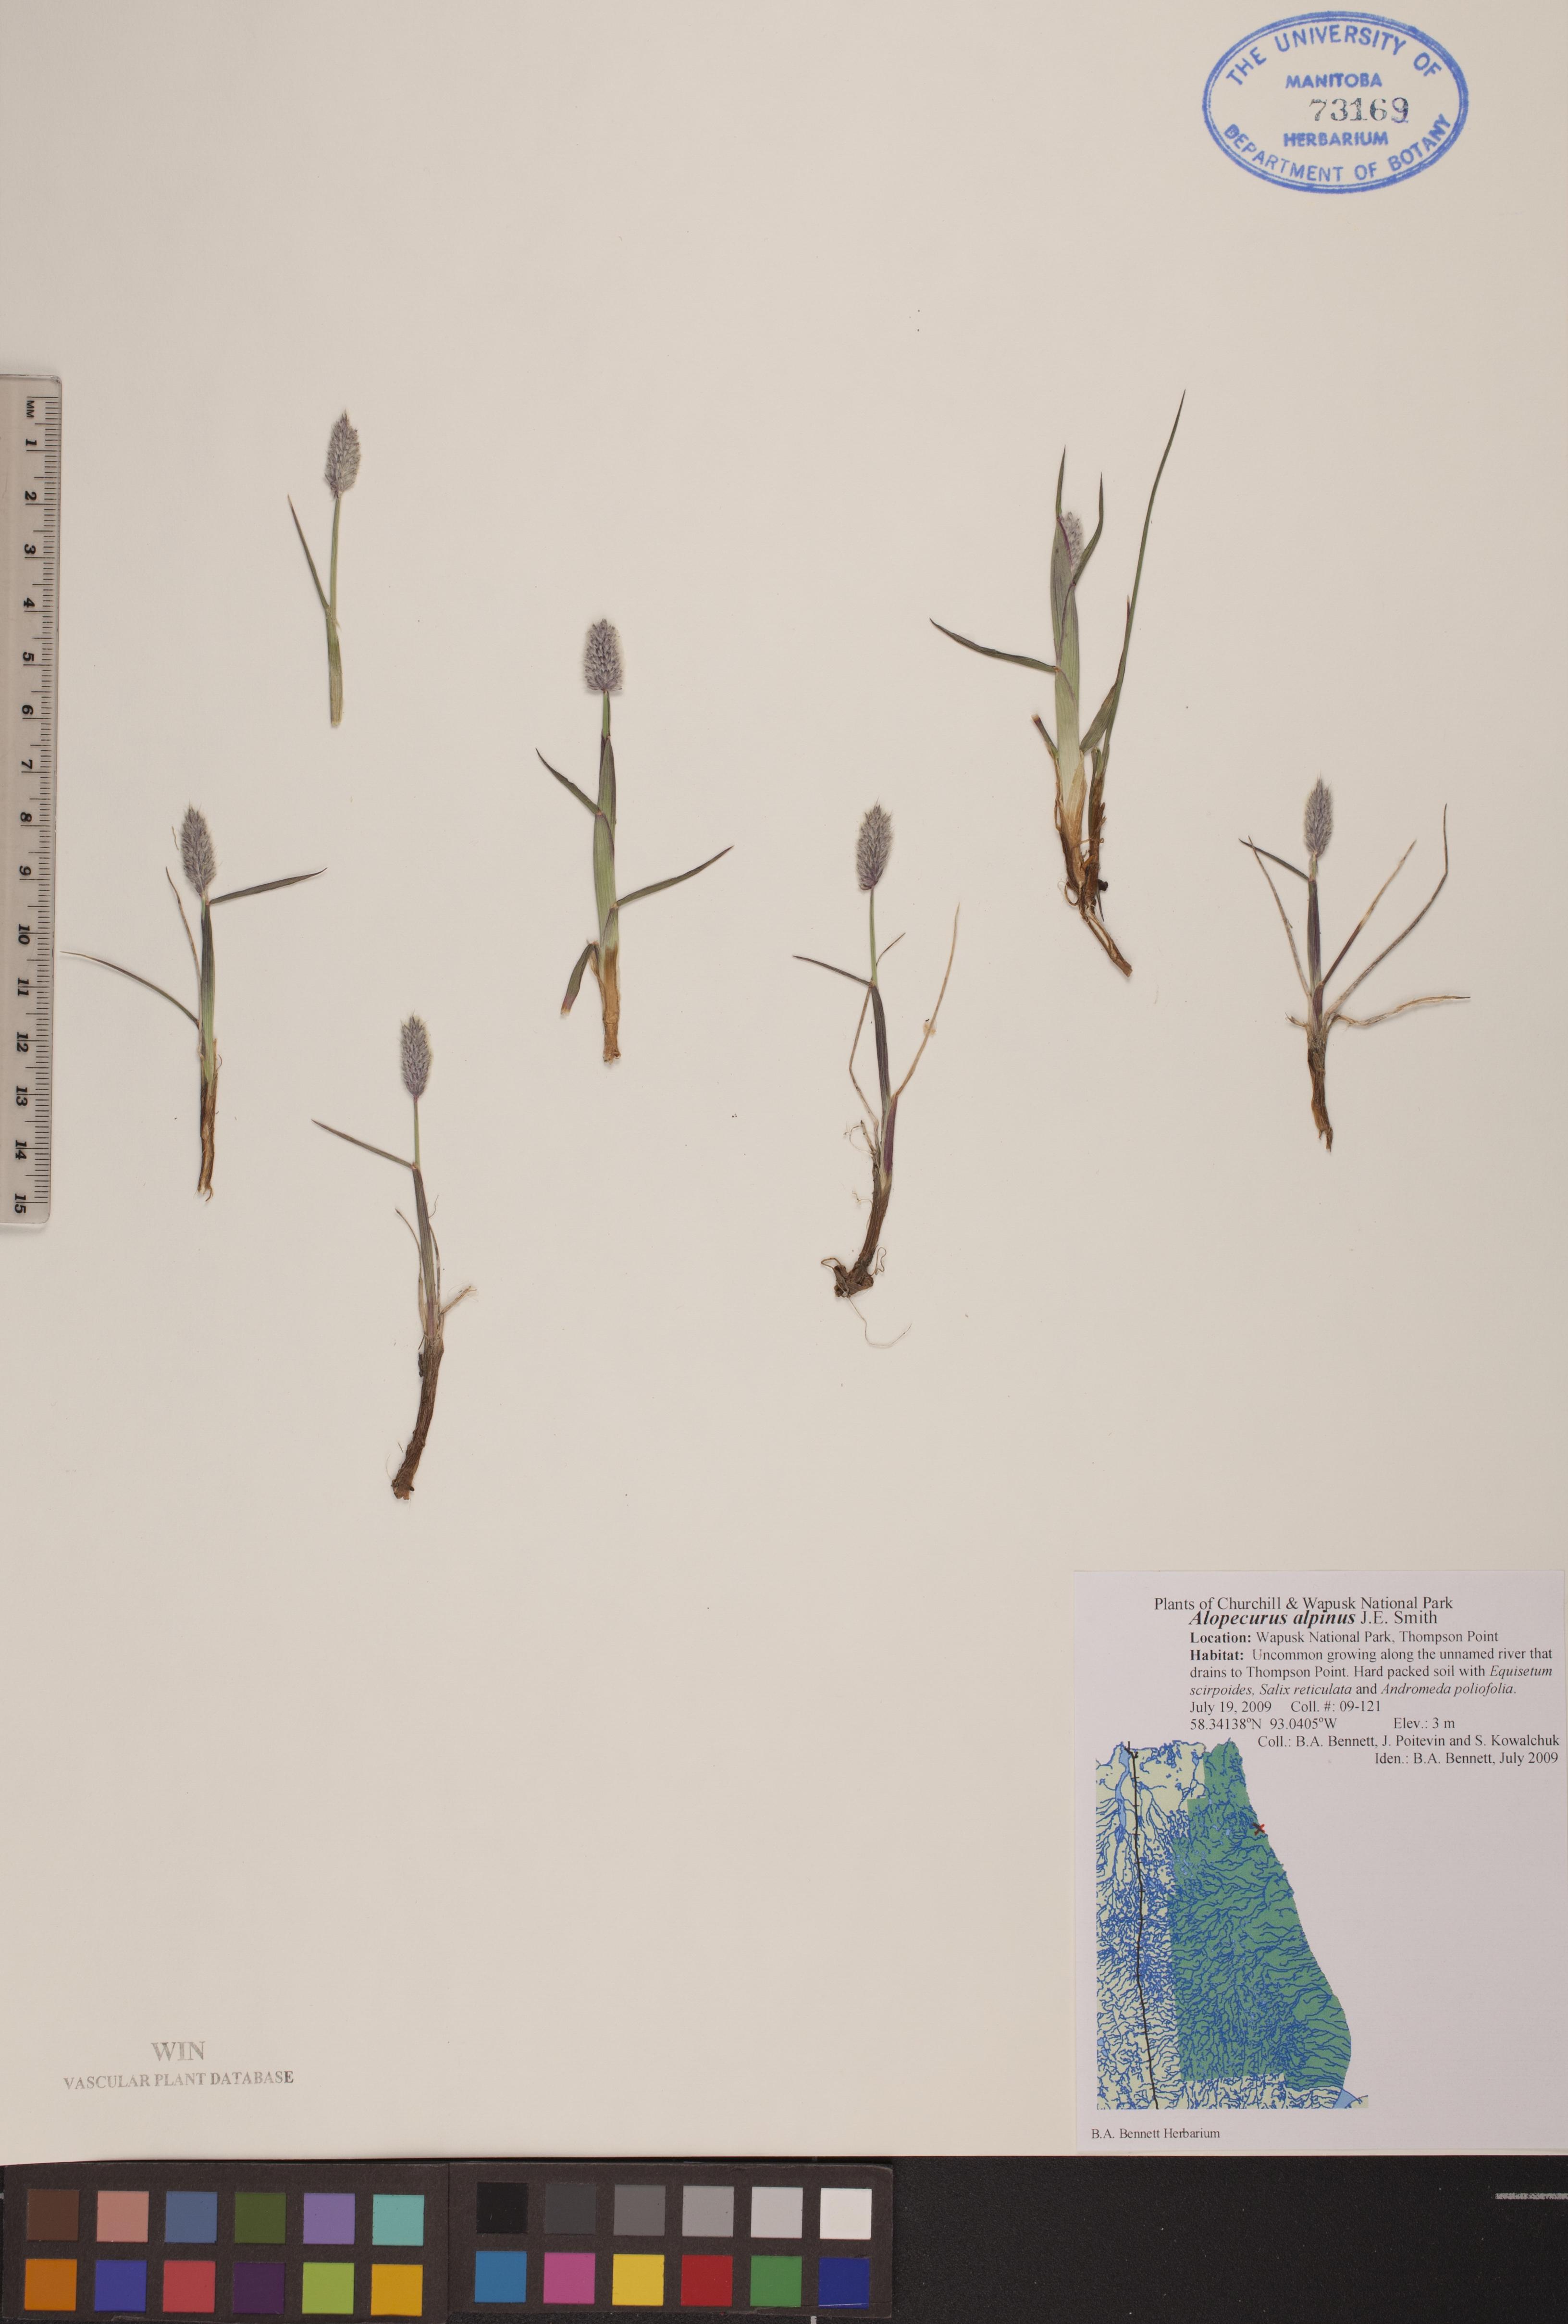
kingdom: Plantae
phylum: Tracheophyta
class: Liliopsida
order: Poales
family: Poaceae
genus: Alopecurus
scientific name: Alopecurus magellanicus
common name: Alpine foxtail
